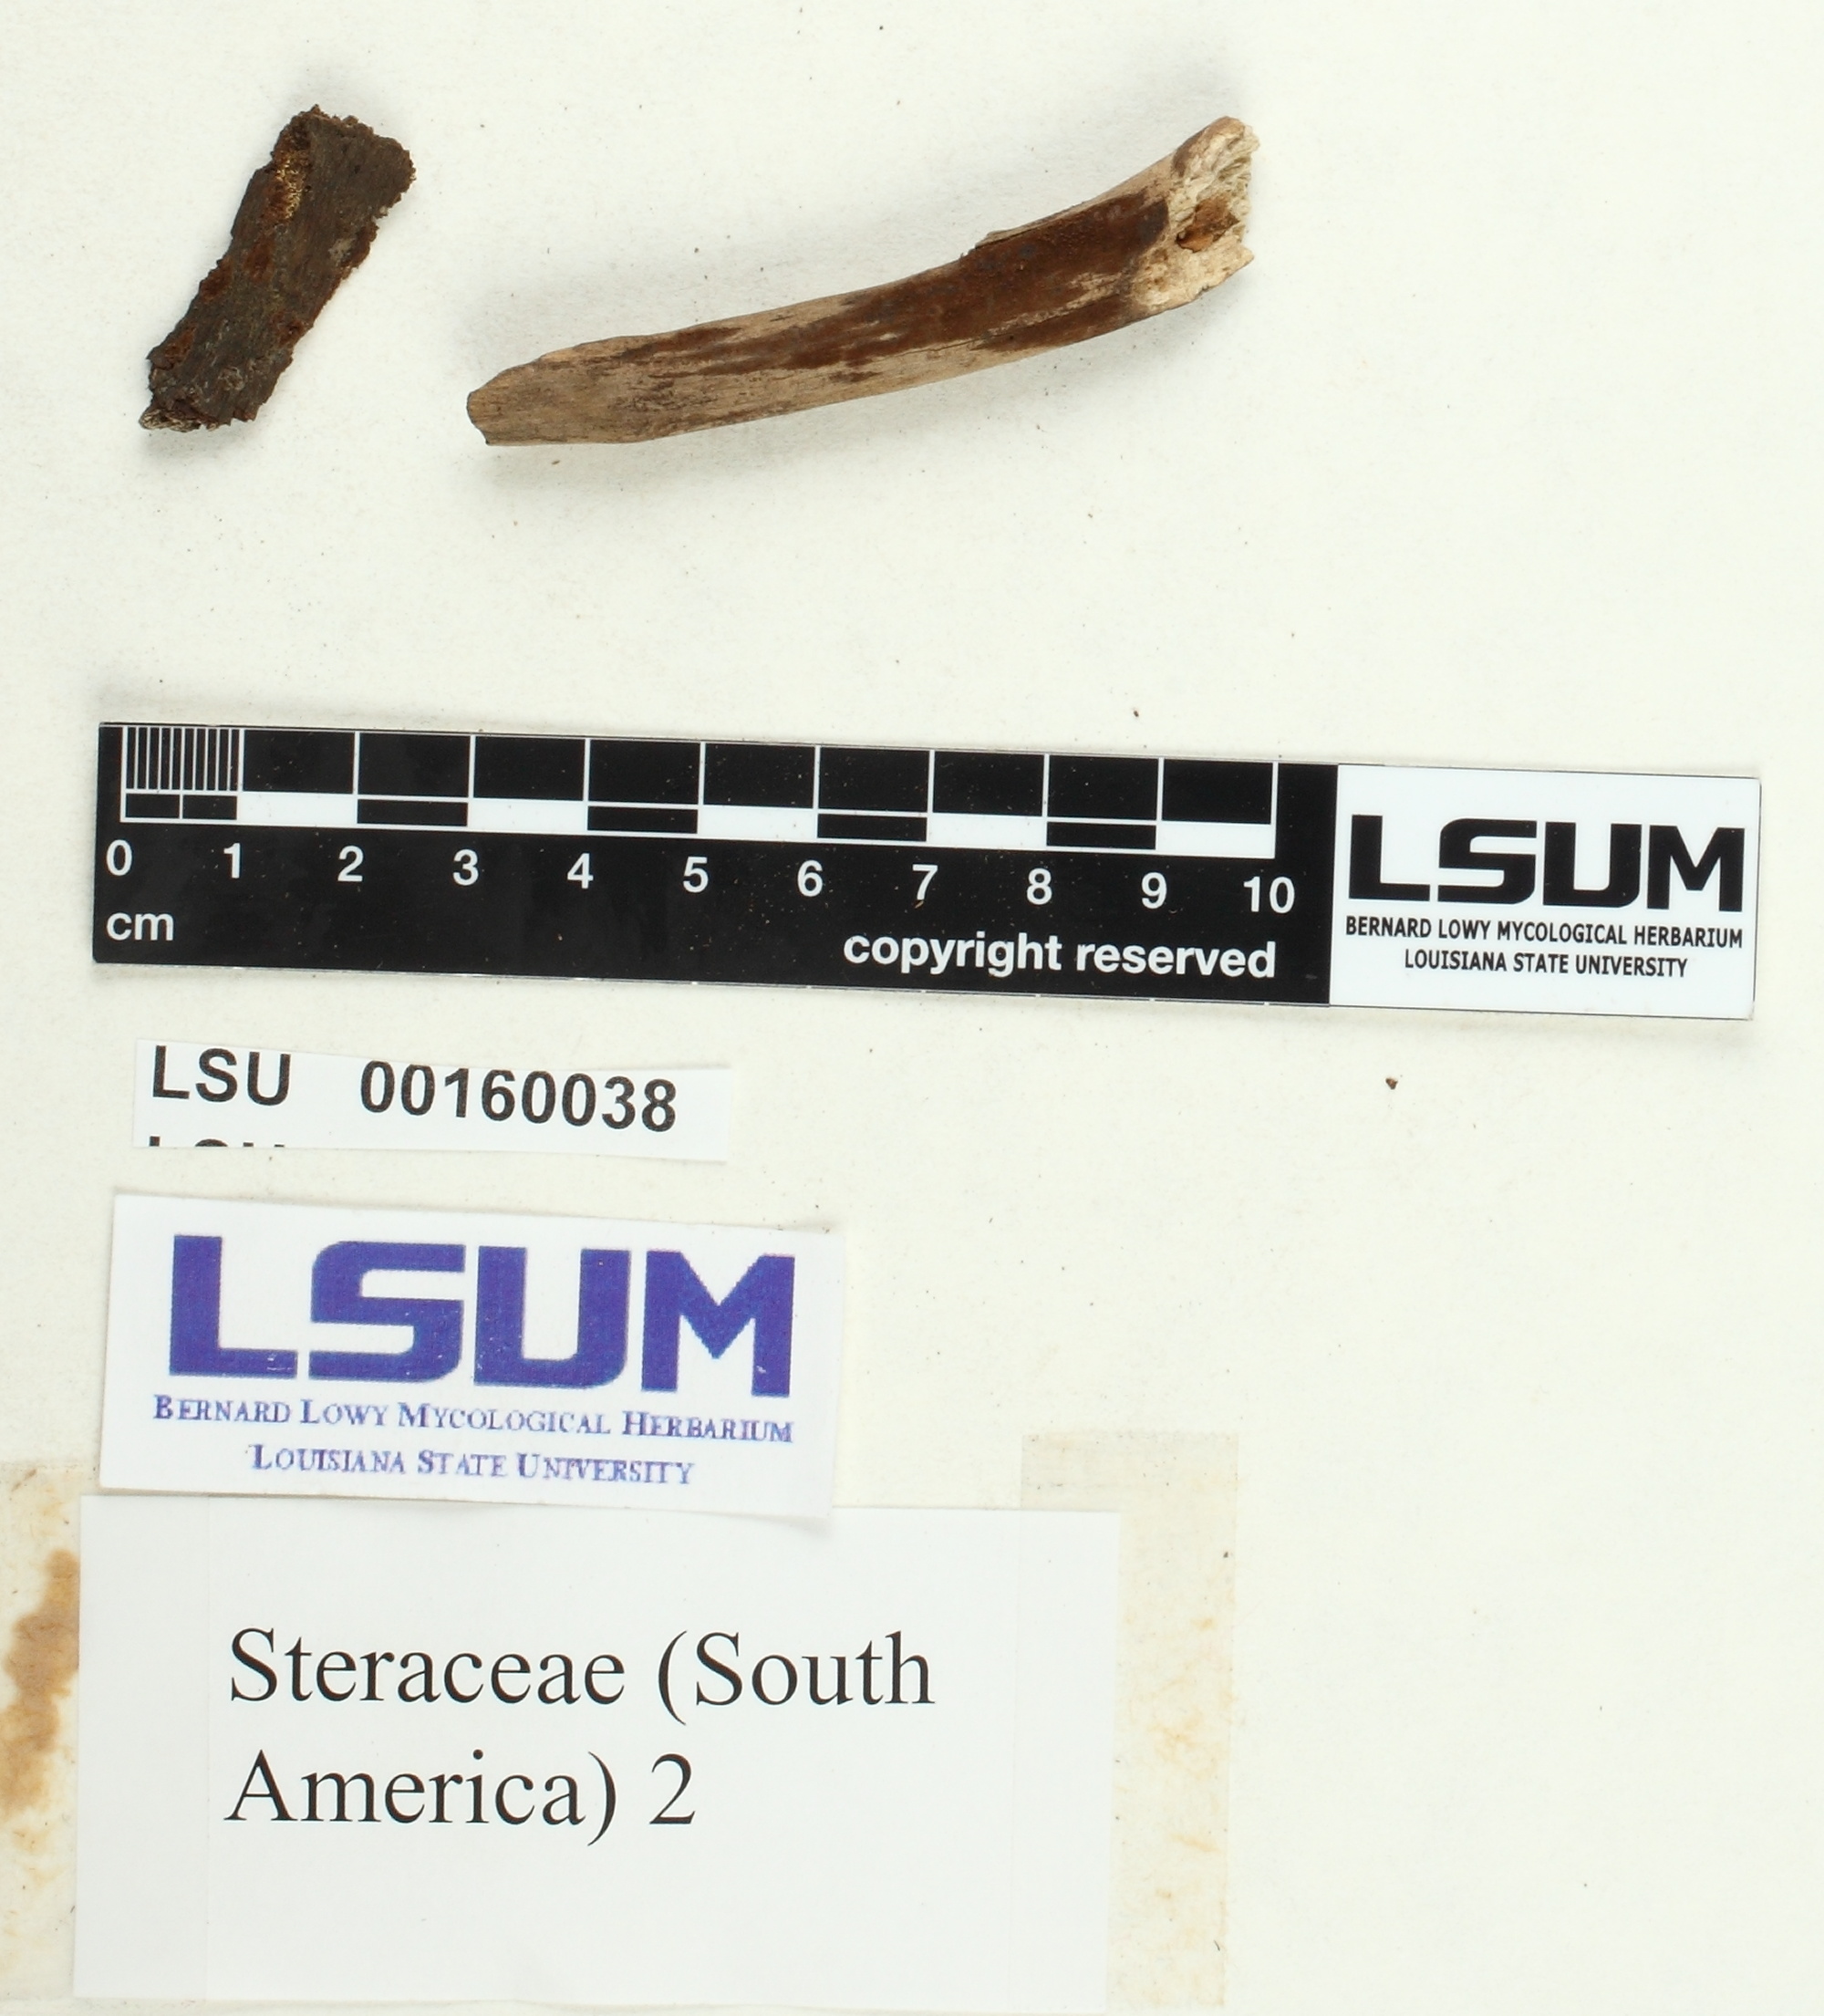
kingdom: Fungi
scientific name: Fungi
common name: Fungi
